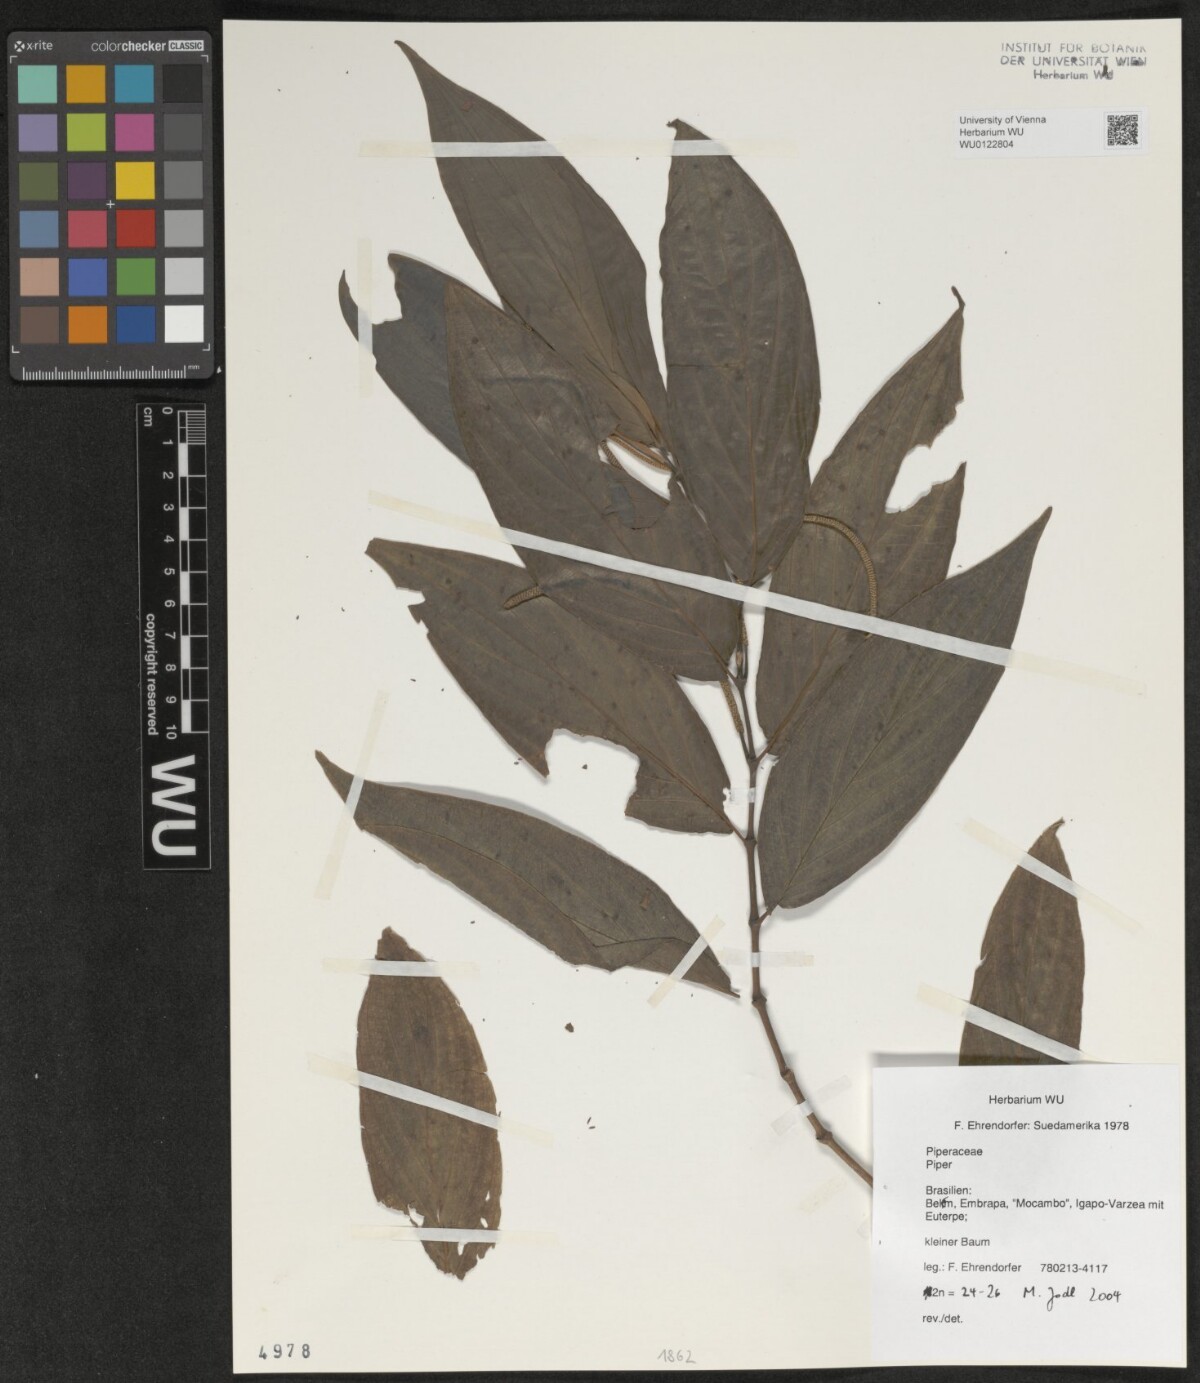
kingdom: Plantae
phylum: Tracheophyta
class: Magnoliopsida
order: Piperales
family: Piperaceae
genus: Piper
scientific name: Piper
